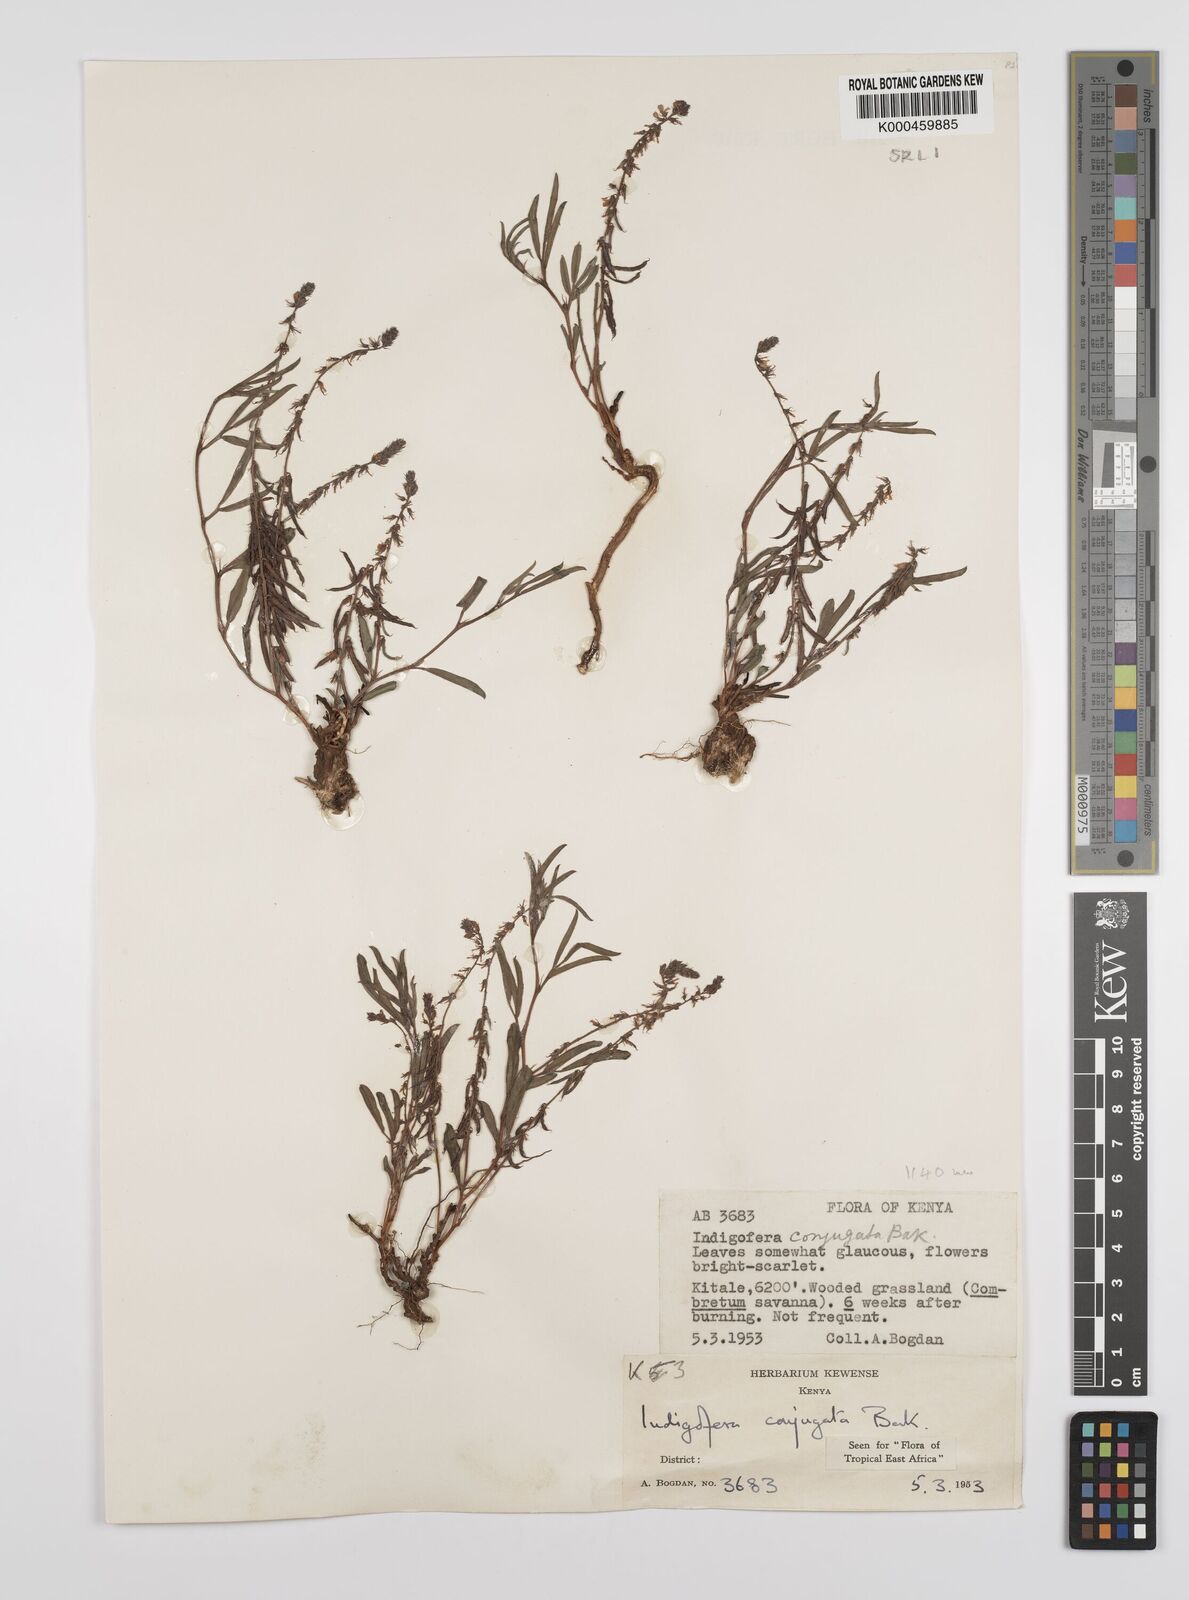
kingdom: Plantae
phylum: Tracheophyta
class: Magnoliopsida
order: Fabales
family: Fabaceae
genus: Indigofera
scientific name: Indigofera conjugata
